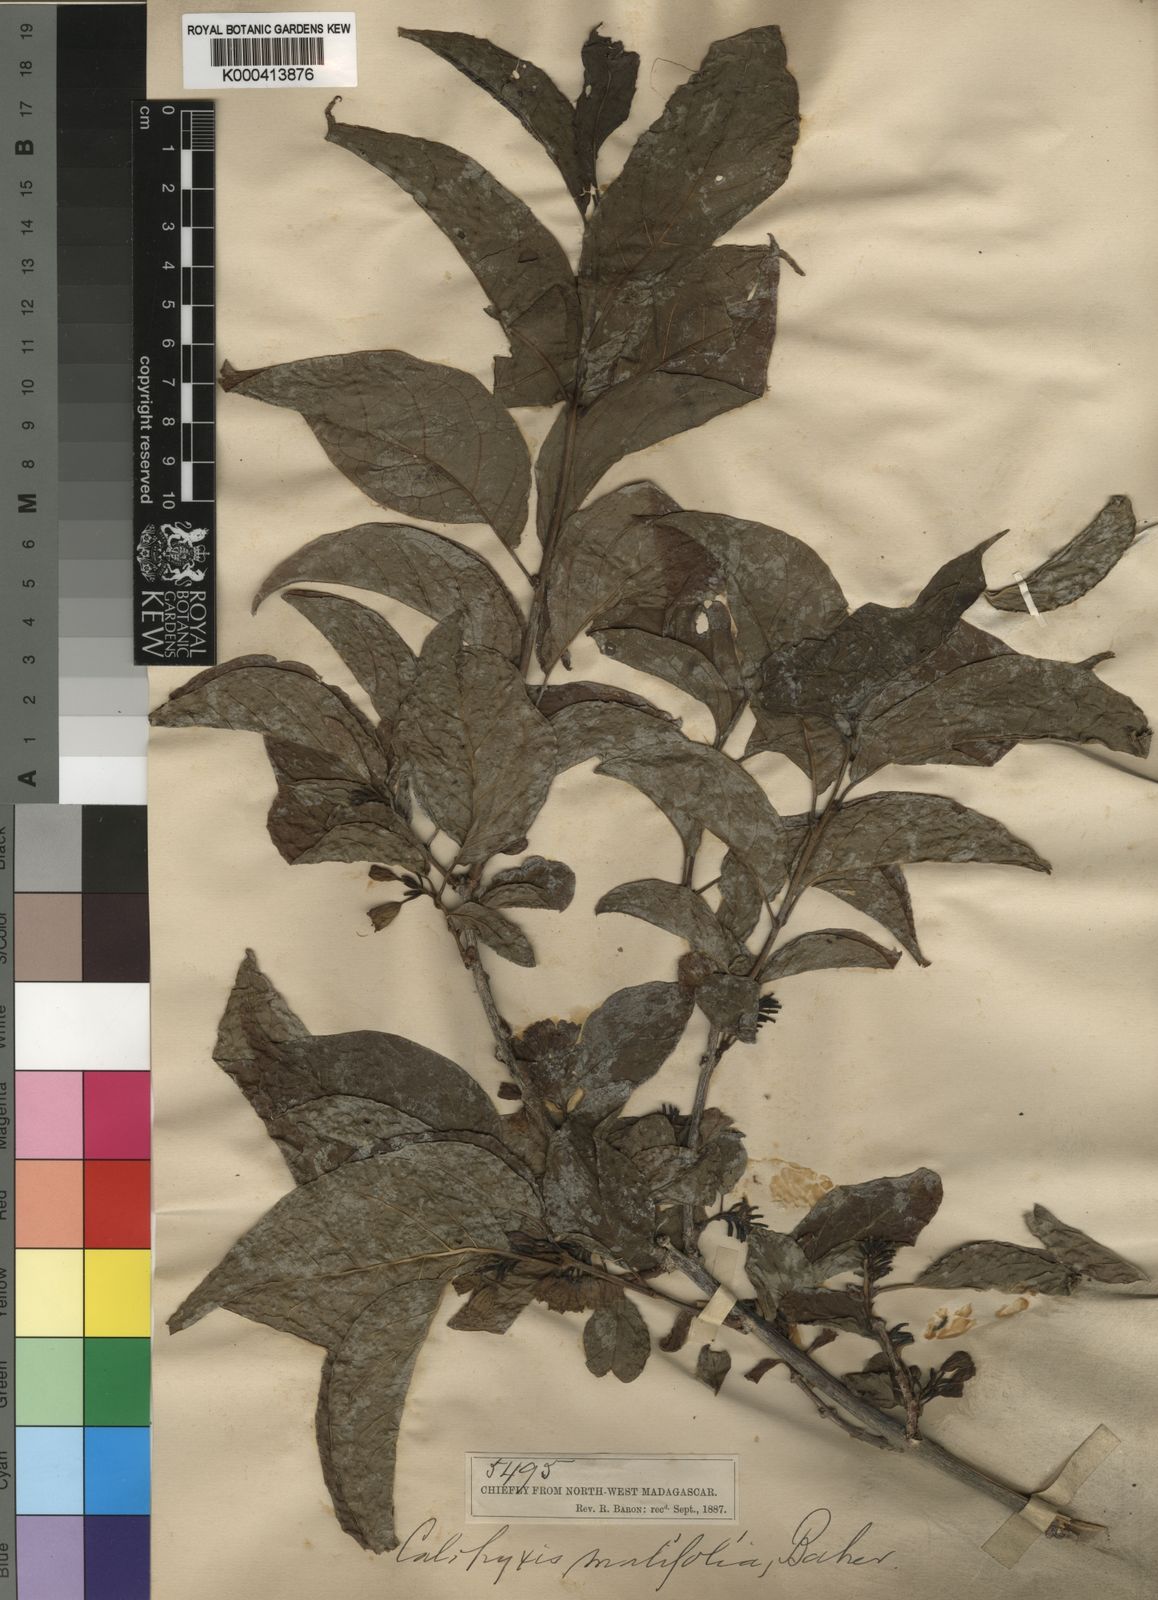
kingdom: Plantae
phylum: Tracheophyta
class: Magnoliopsida
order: Myrtales
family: Combretaceae
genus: Combretum
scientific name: Combretum malifolium
